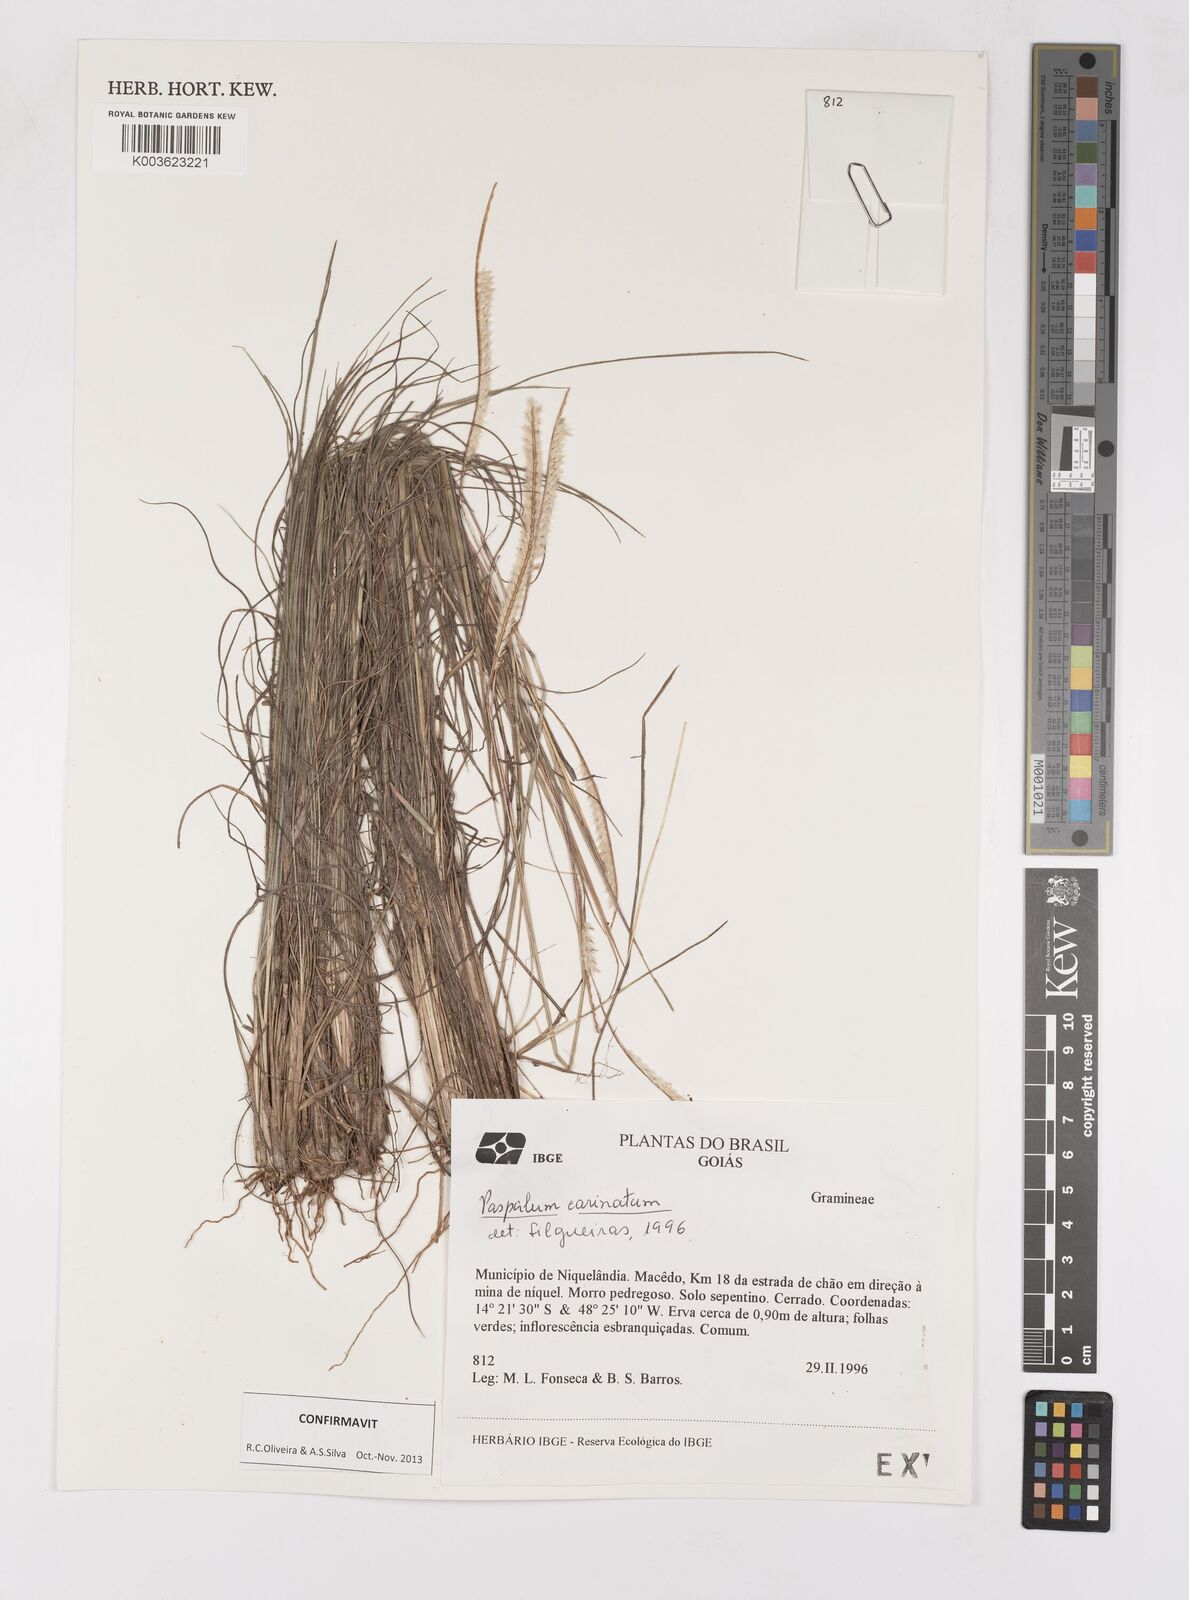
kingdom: Plantae
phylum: Tracheophyta
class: Liliopsida
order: Poales
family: Poaceae
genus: Paspalum
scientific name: Paspalum carinatum
